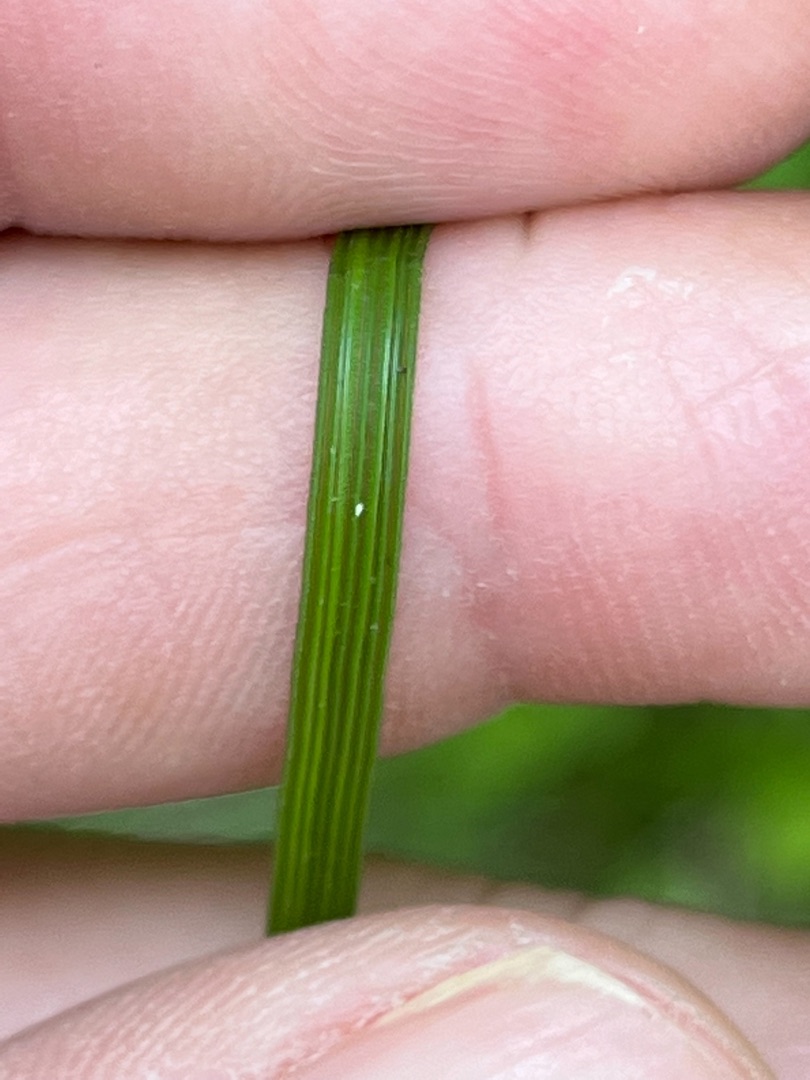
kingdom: Plantae
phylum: Tracheophyta
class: Liliopsida
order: Poales
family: Poaceae
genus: Deschampsia
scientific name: Deschampsia cespitosa
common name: Mose-bunke
